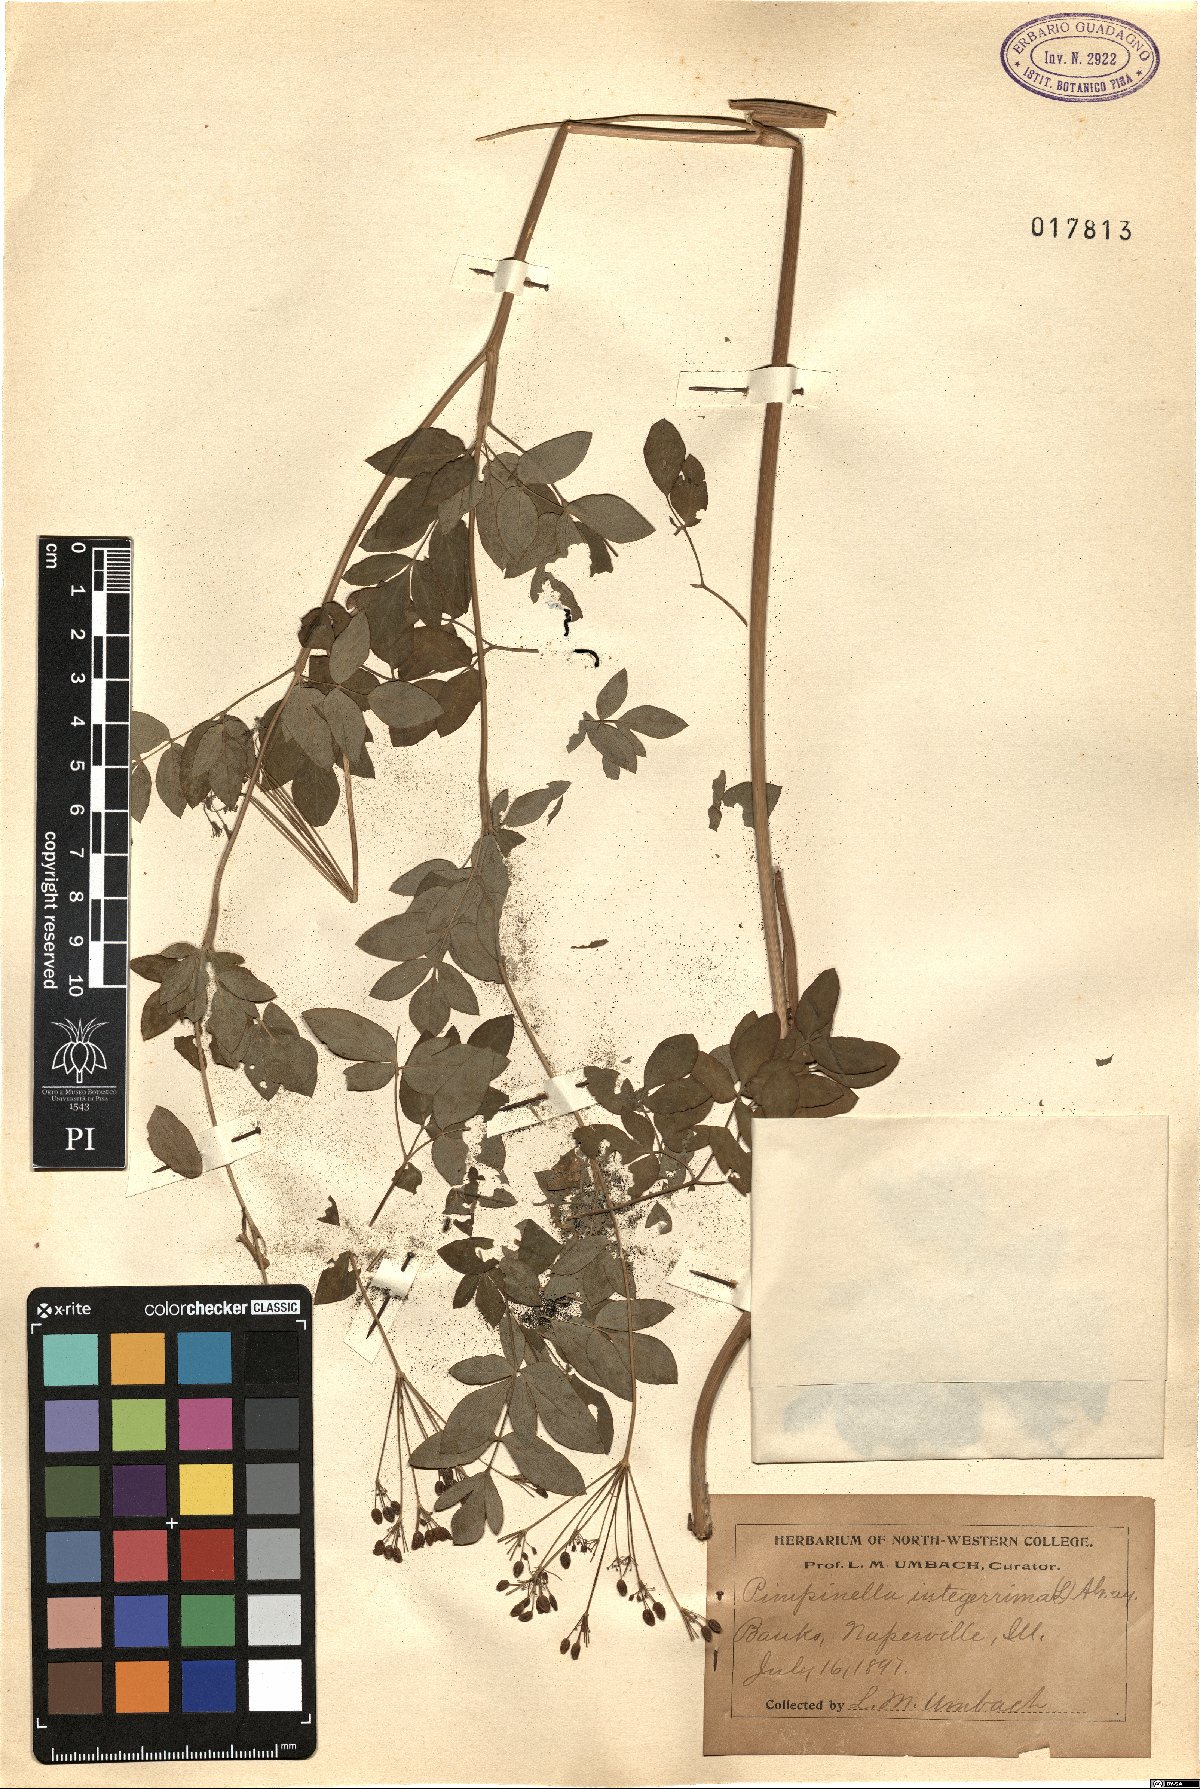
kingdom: Plantae
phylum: Tracheophyta
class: Magnoliopsida
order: Apiales
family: Apiaceae
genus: Taenidia
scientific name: Taenidia integerrima
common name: Golden alexander
